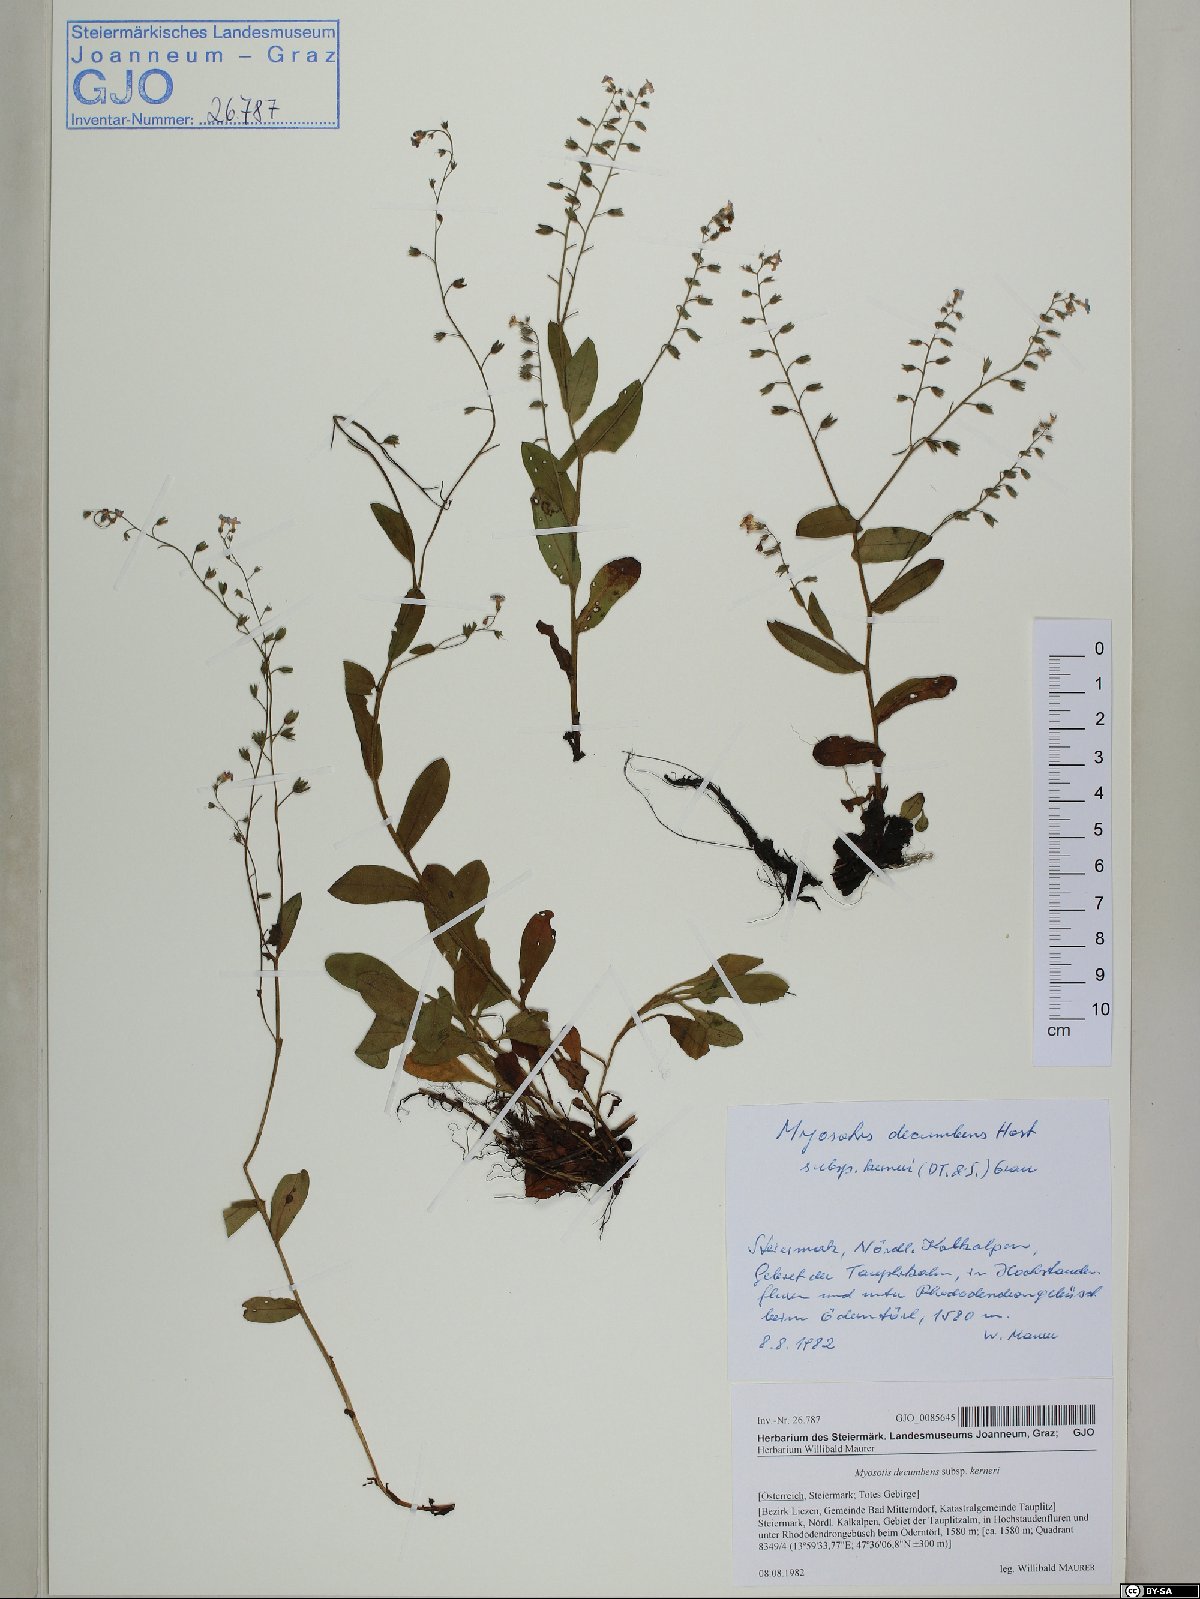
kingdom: Plantae
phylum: Tracheophyta
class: Magnoliopsida
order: Boraginales
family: Boraginaceae
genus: Myosotis
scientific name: Myosotis decumbens
